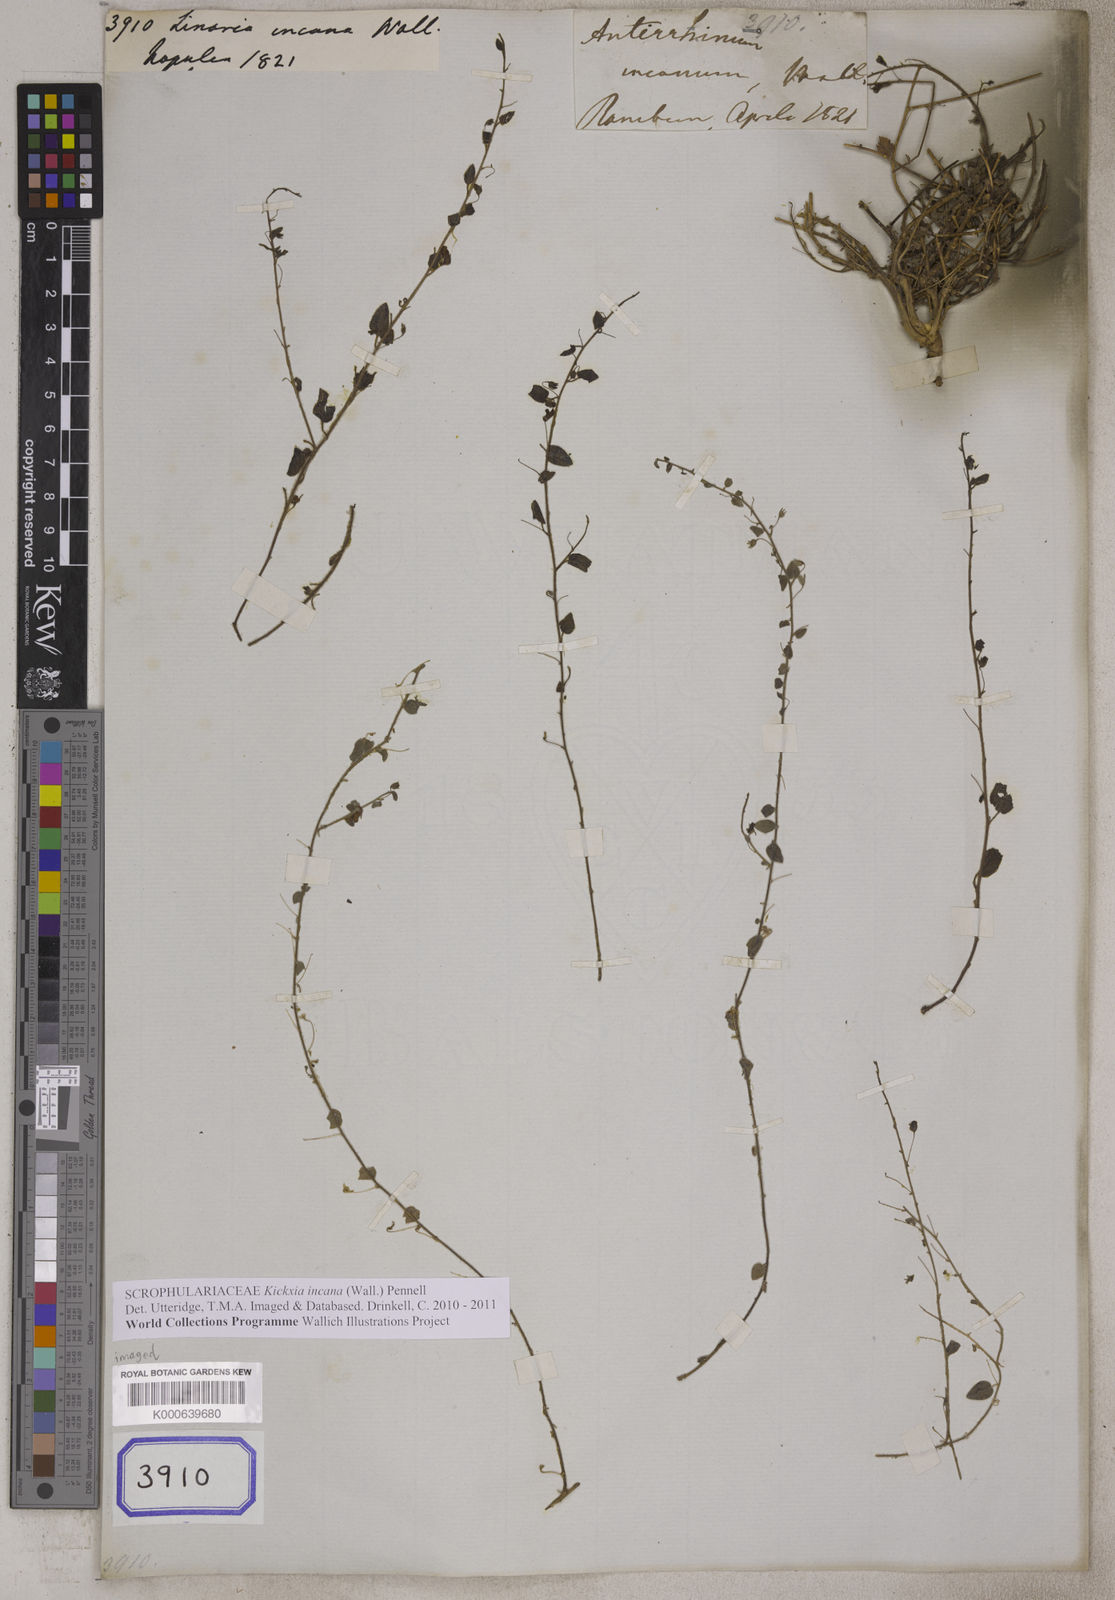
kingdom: Plantae
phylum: Tracheophyta
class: Magnoliopsida
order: Lamiales
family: Plantaginaceae
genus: Nanorrhinum
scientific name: Nanorrhinum incanum
